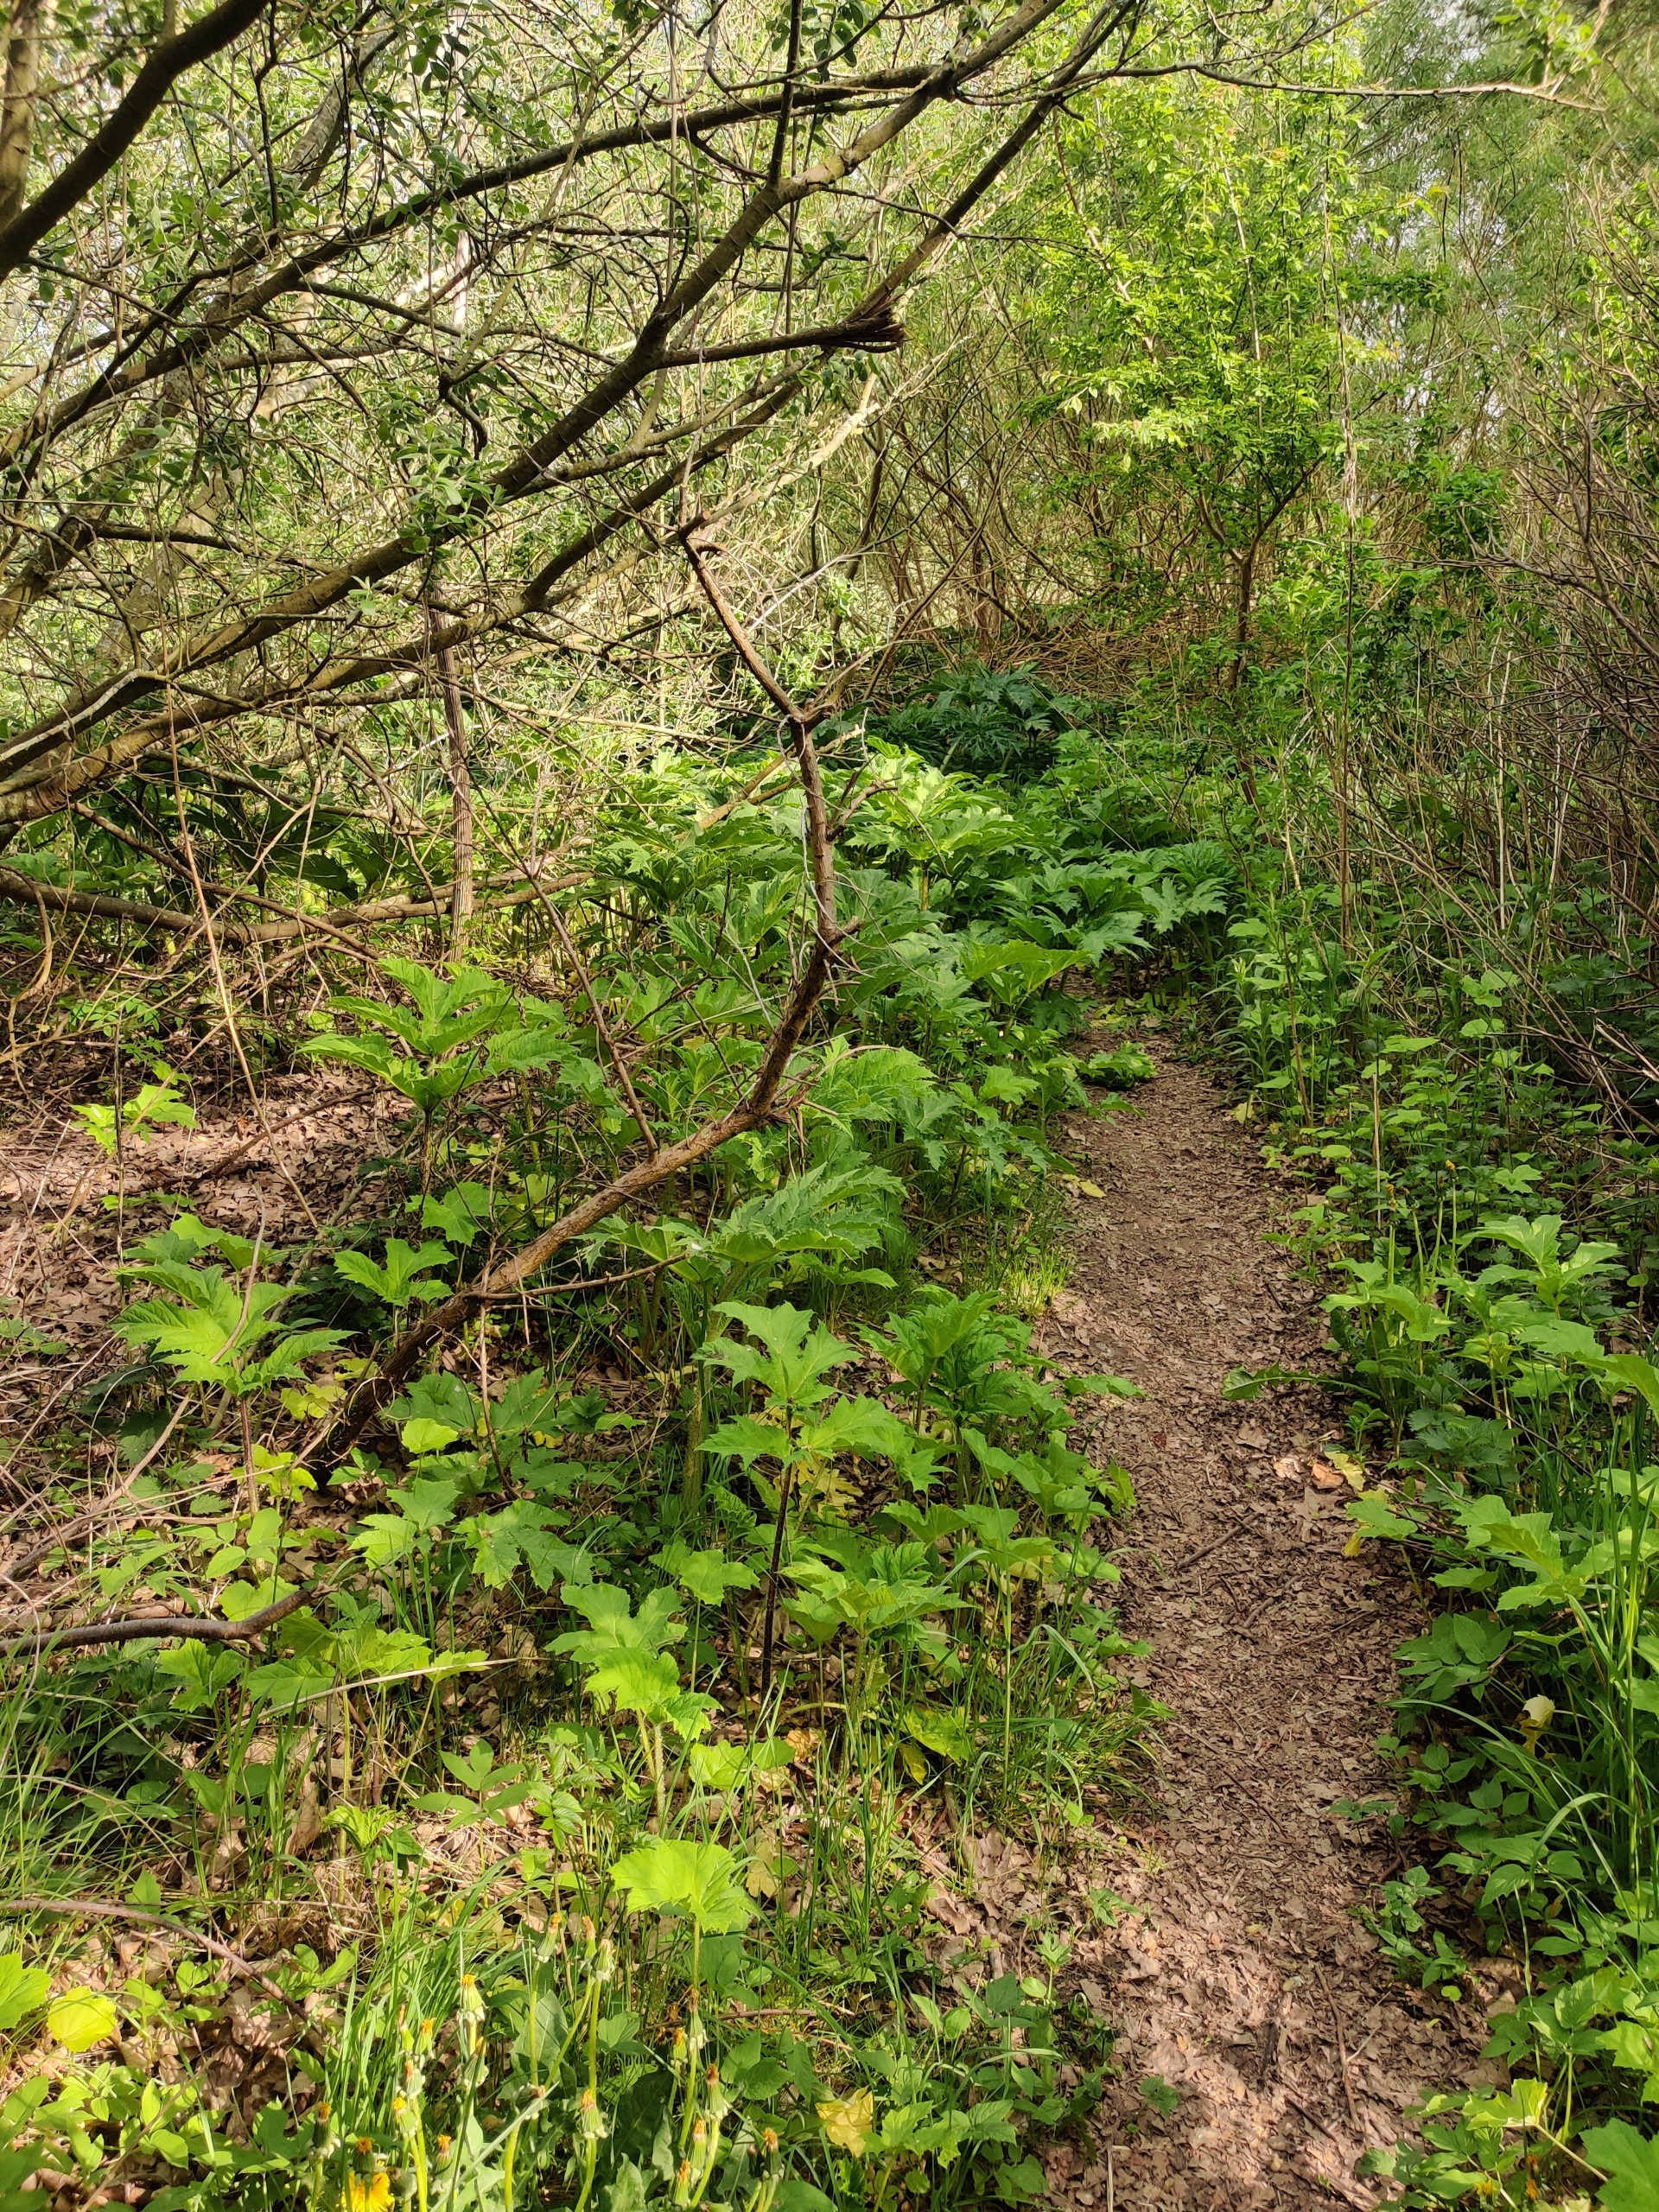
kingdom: Plantae
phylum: Tracheophyta
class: Magnoliopsida
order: Apiales
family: Apiaceae
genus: Heracleum
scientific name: Heracleum mantegazzianum
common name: Kæmpe-bjørneklo
